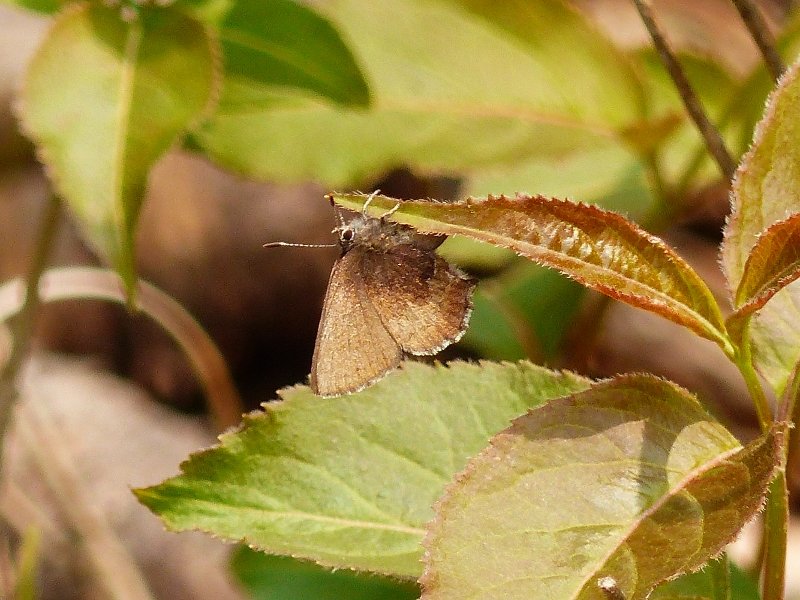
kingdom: Animalia
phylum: Arthropoda
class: Insecta
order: Lepidoptera
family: Lycaenidae
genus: Incisalia
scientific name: Incisalia irioides
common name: Brown Elfin
